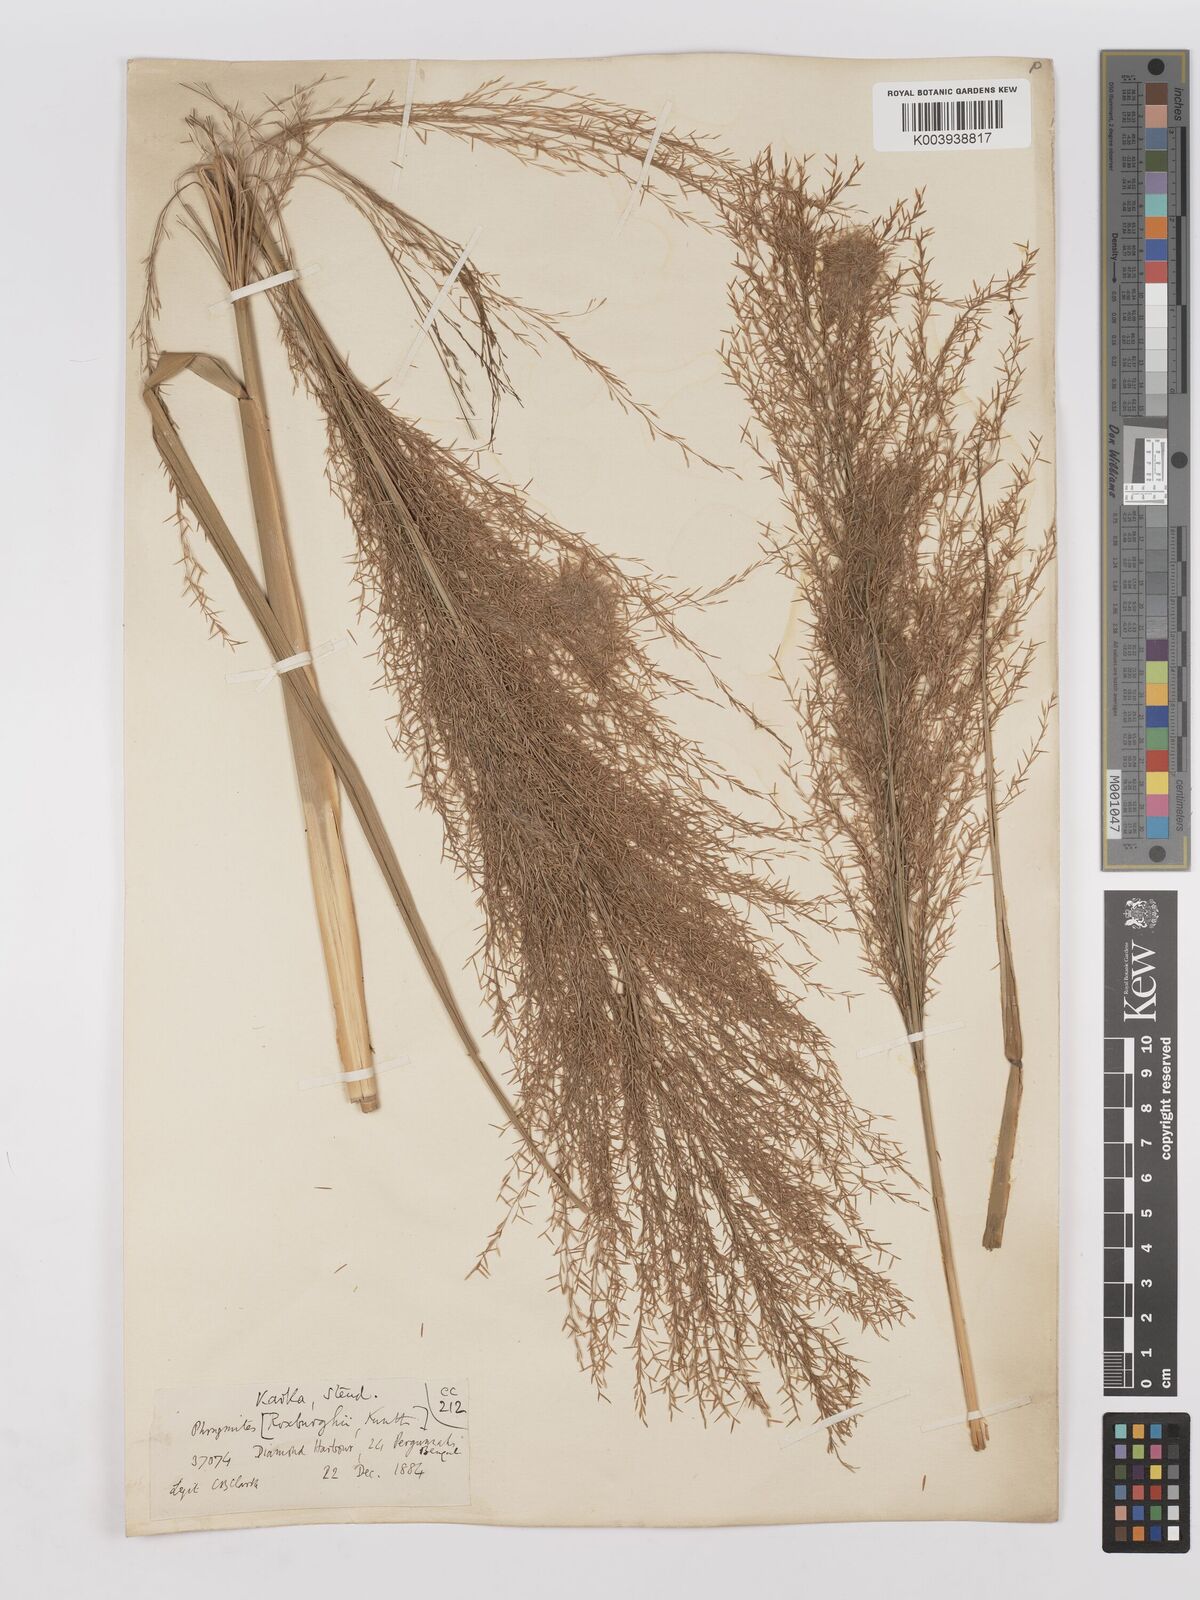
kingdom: Plantae
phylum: Tracheophyta
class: Liliopsida
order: Poales
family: Poaceae
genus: Phragmites
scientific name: Phragmites karka
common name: Tropical reed
